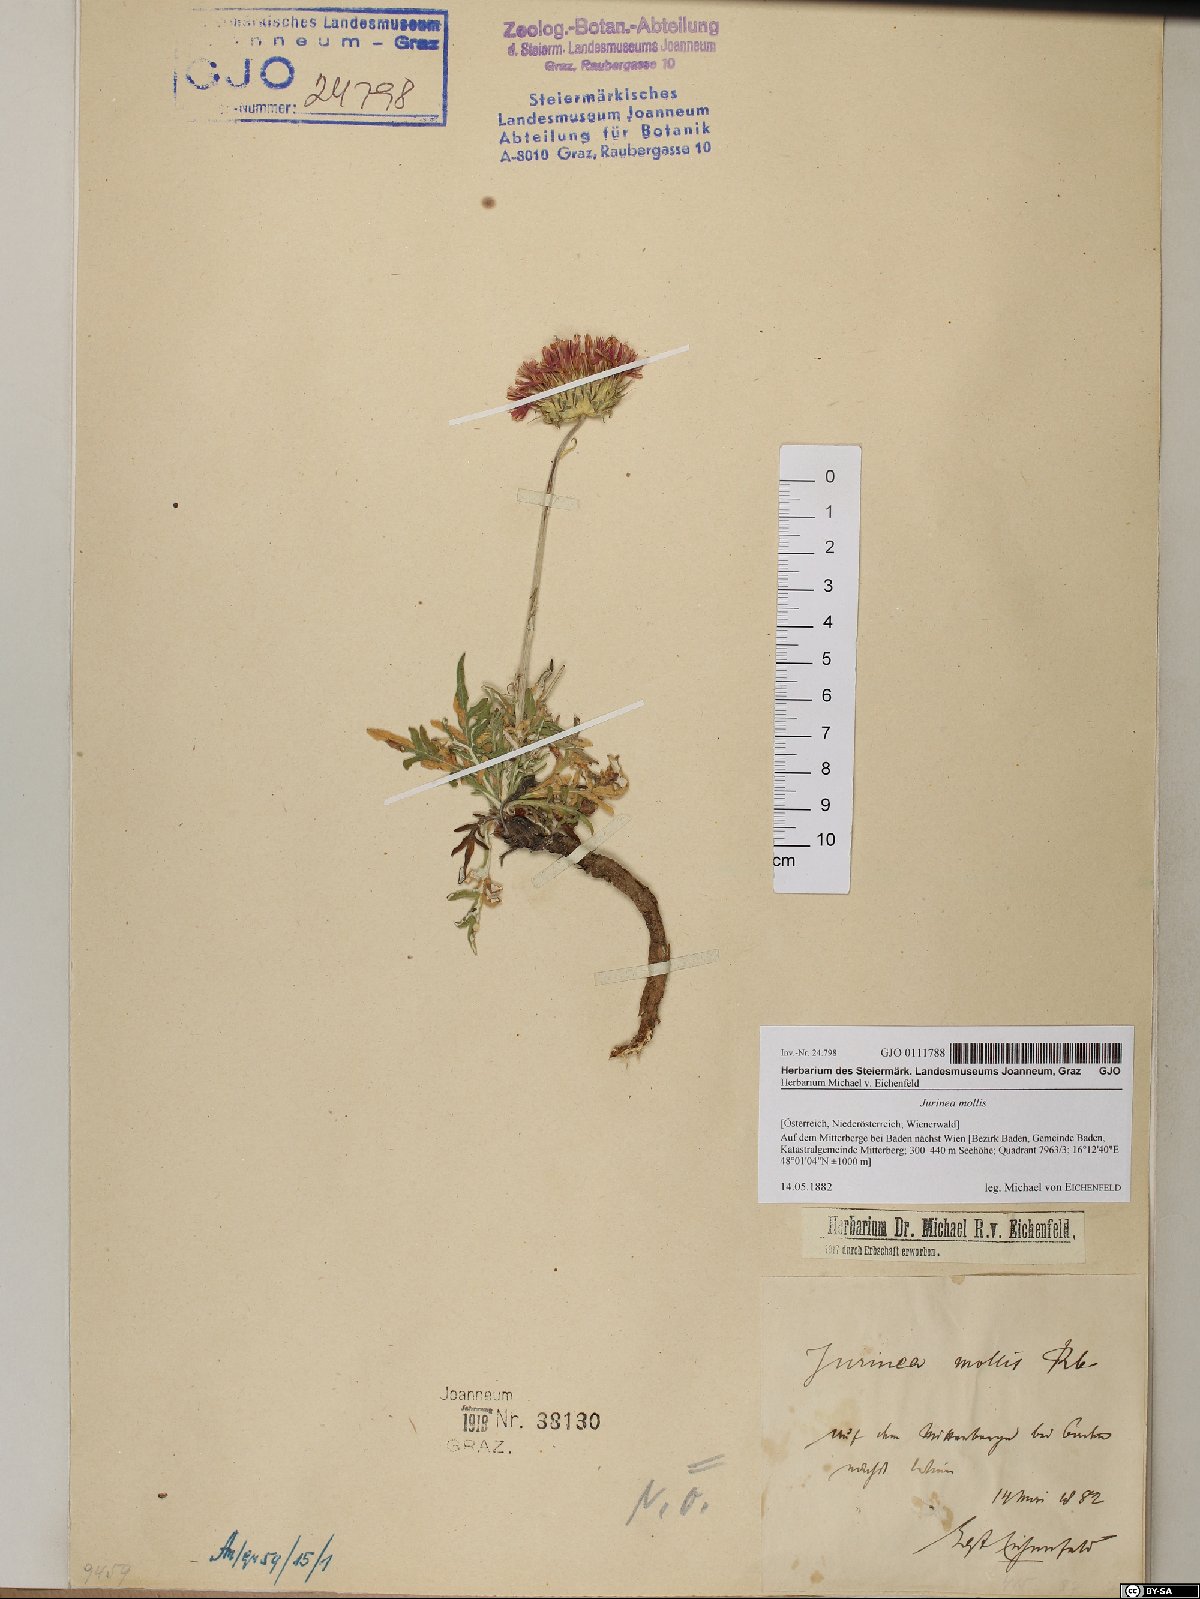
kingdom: Plantae
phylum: Tracheophyta
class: Magnoliopsida
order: Asterales
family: Asteraceae
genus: Jurinea
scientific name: Jurinea mollis
